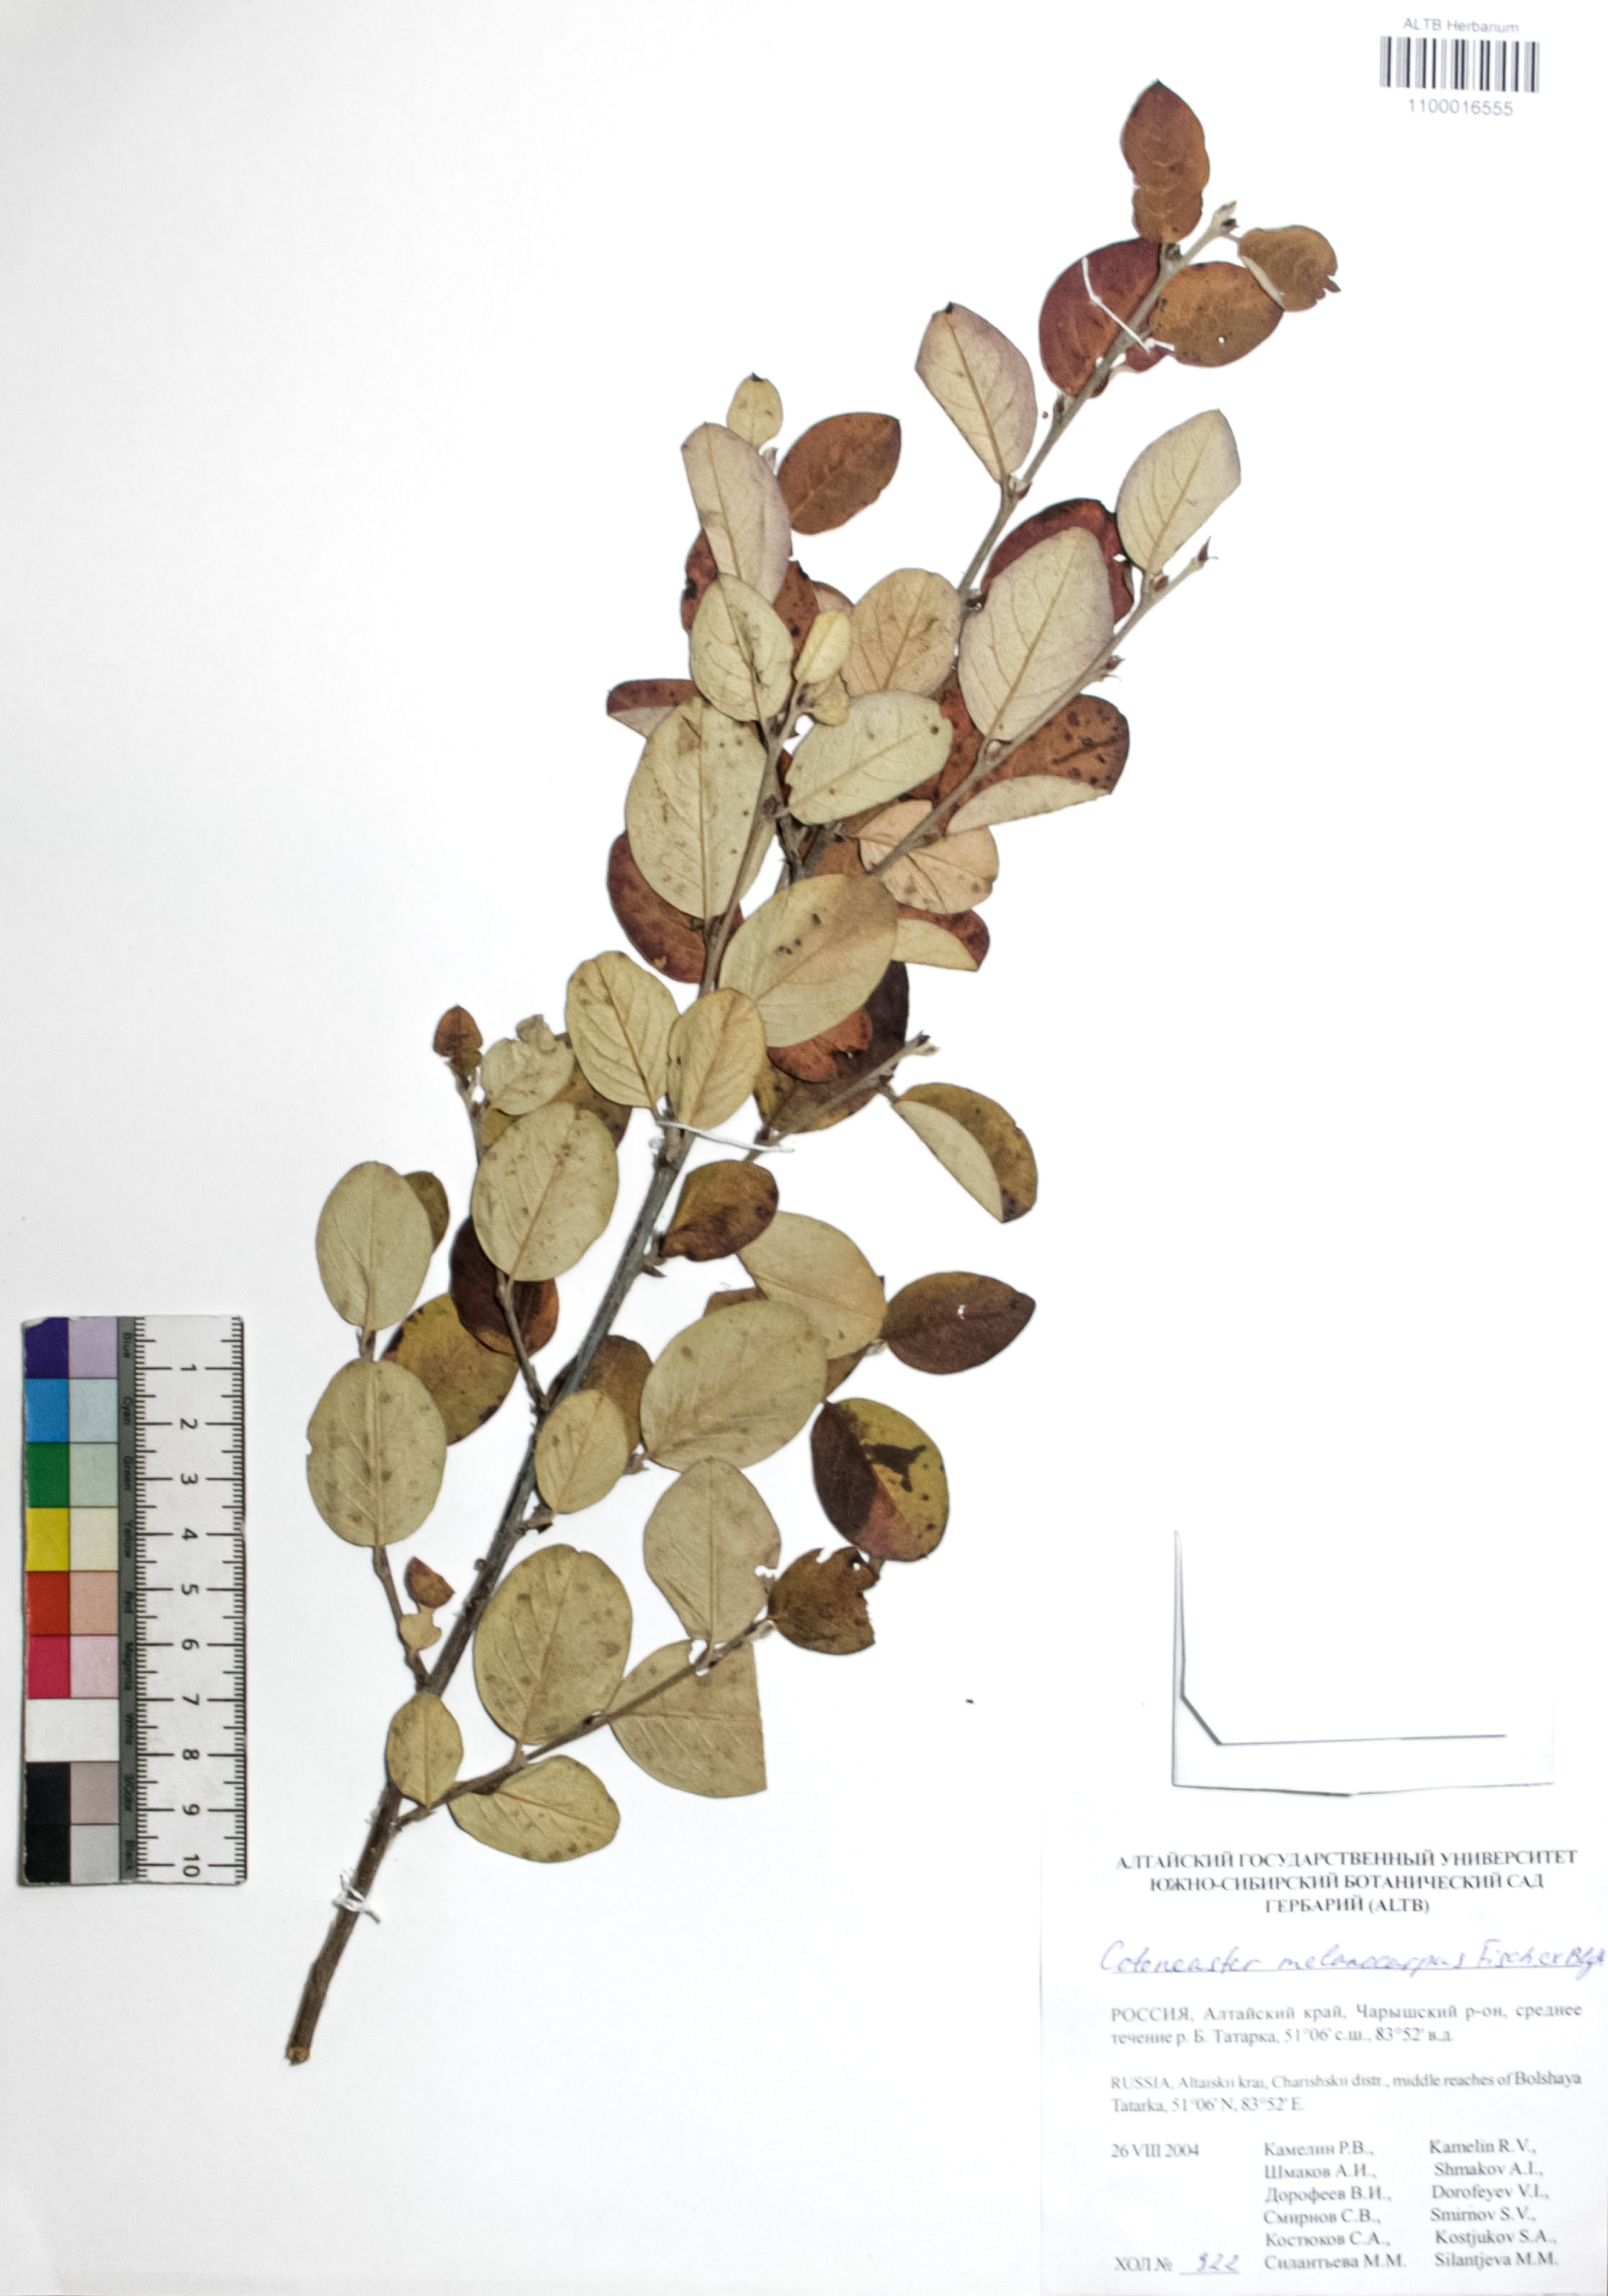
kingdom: Plantae
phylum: Tracheophyta
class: Magnoliopsida
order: Rosales
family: Rosaceae
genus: Cotoneaster
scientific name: Cotoneaster niger
